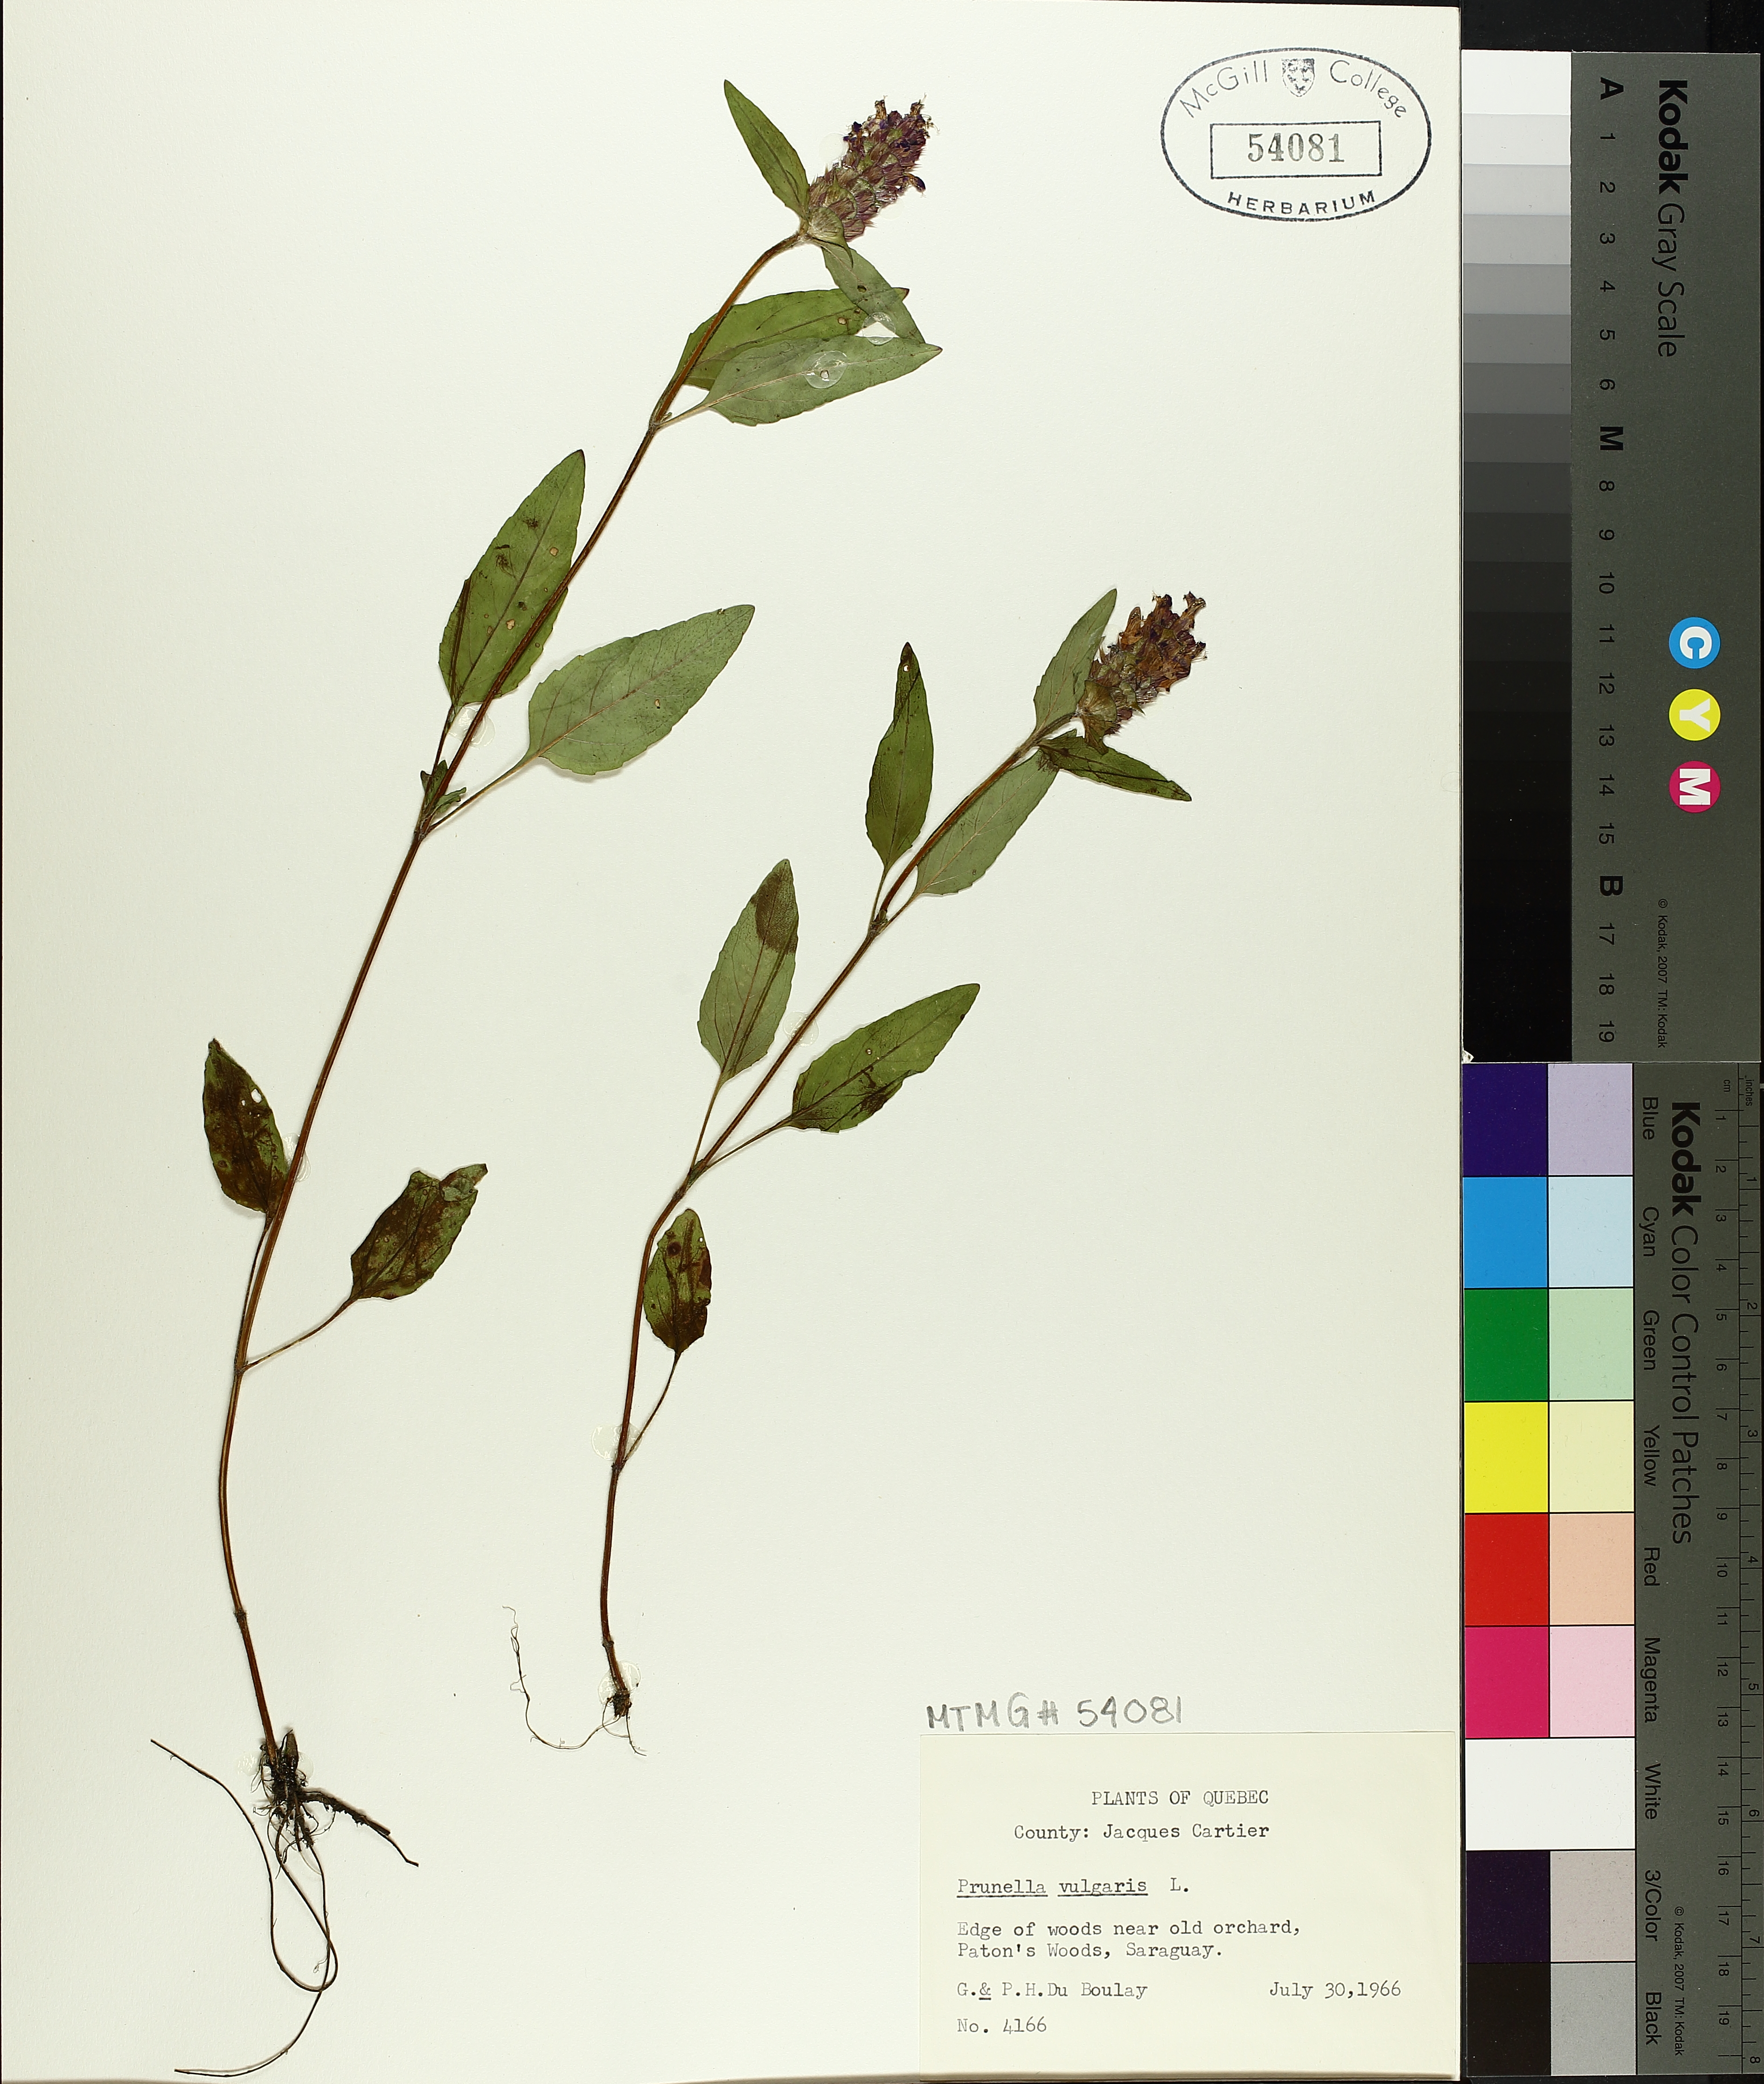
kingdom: Plantae
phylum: Tracheophyta
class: Magnoliopsida
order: Lamiales
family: Lamiaceae
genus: Prunella
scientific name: Prunella vulgaris
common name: Heal-all
